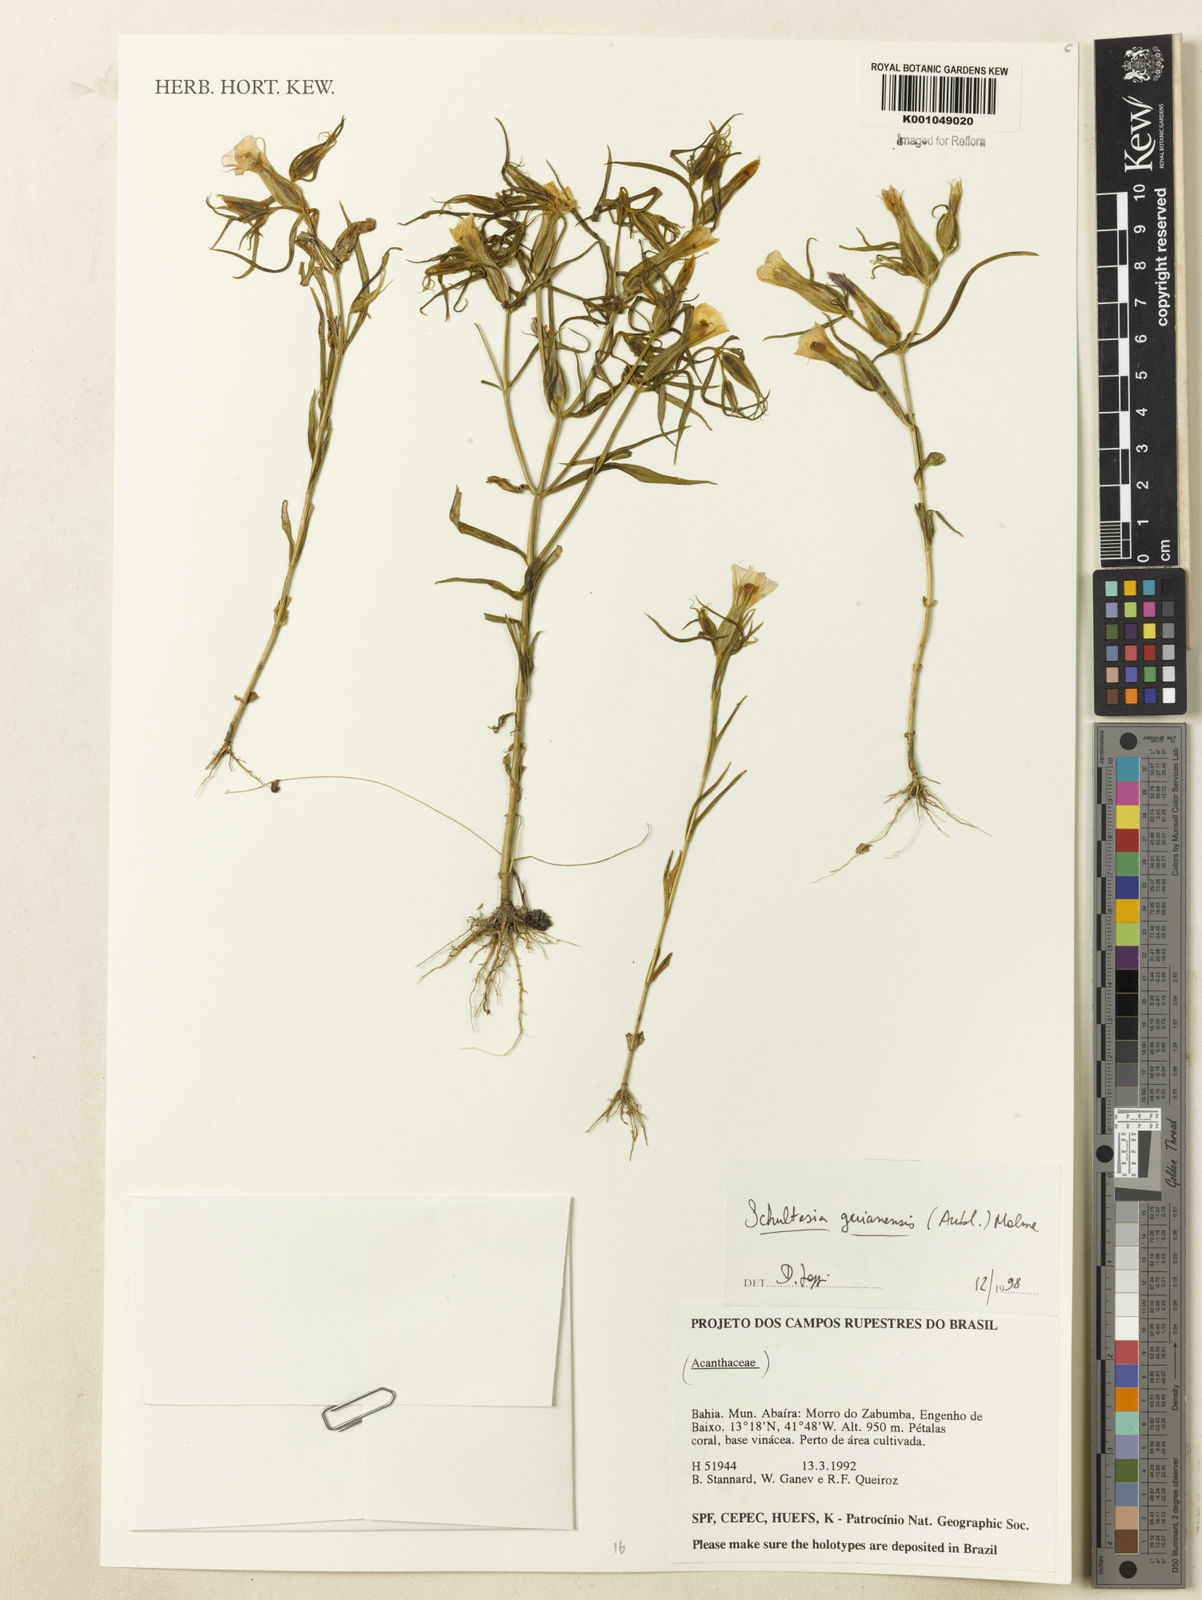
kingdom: Plantae
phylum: Tracheophyta
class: Magnoliopsida
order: Gentianales
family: Gentianaceae
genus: Schultesia
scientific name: Schultesia guianensis
